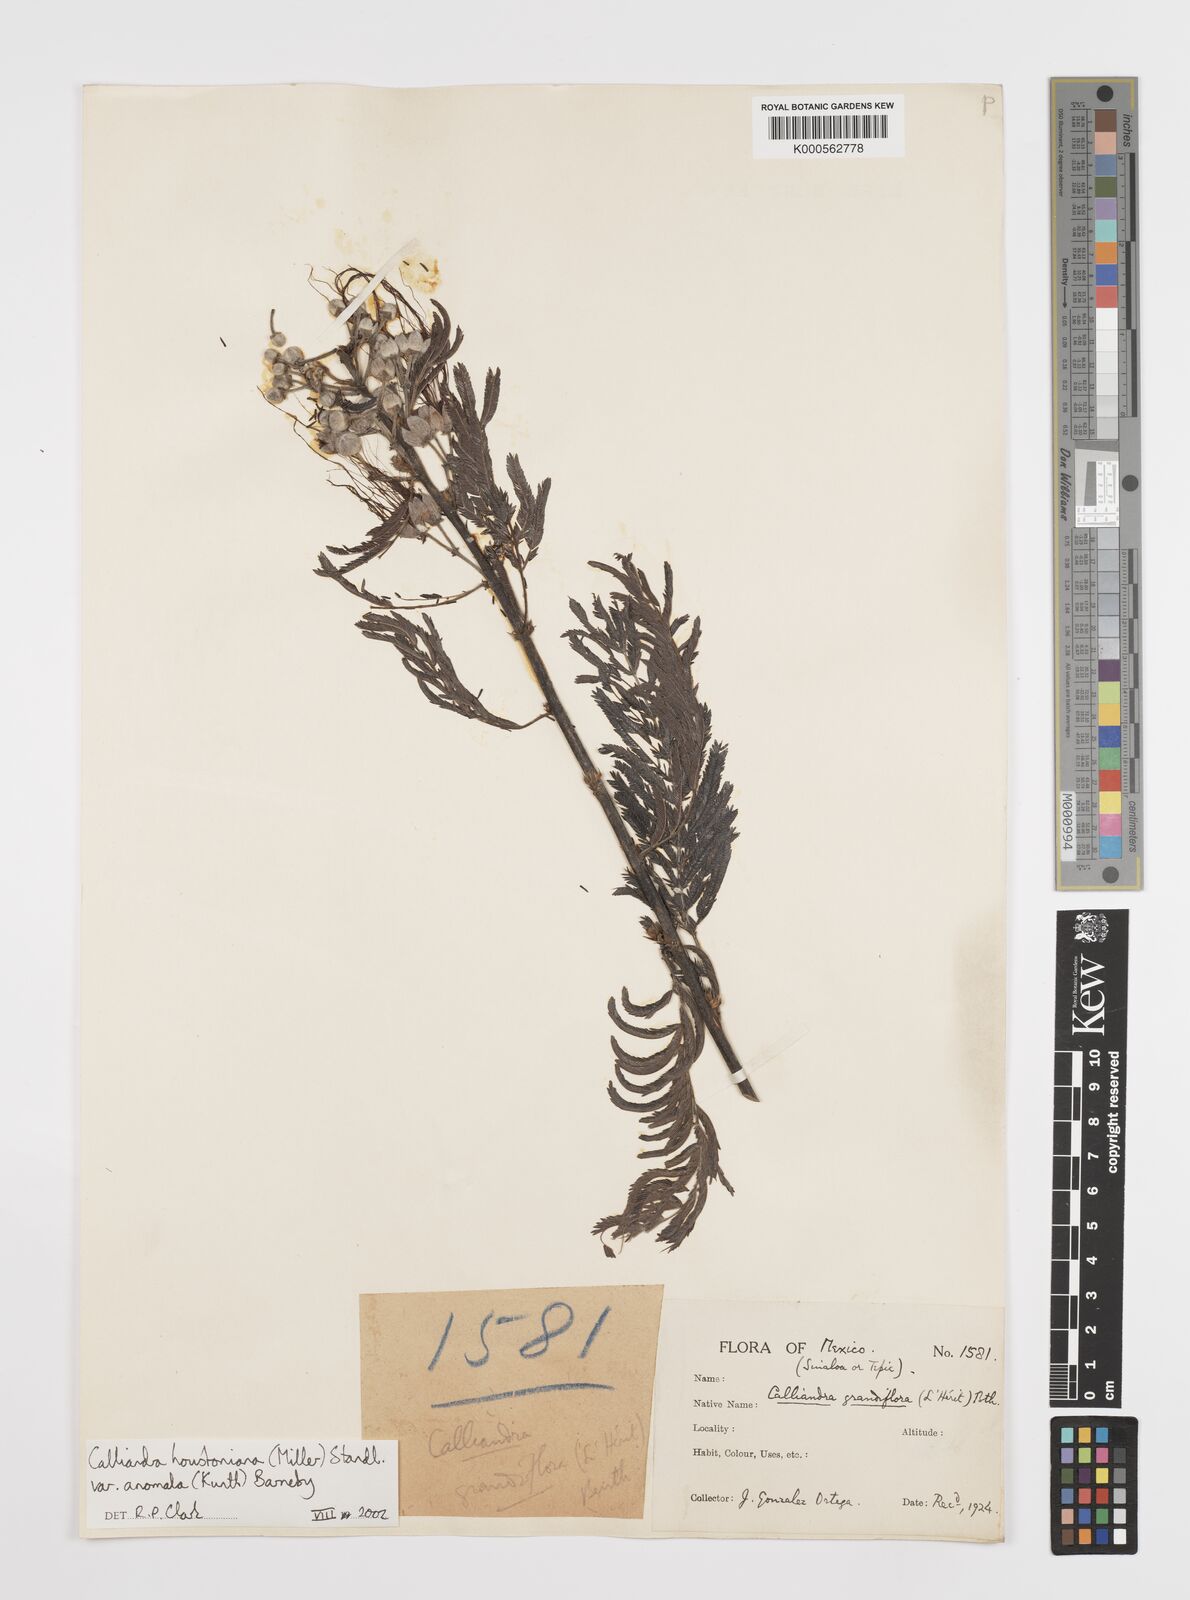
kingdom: Plantae
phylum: Tracheophyta
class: Magnoliopsida
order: Fabales
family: Fabaceae
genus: Calliandra
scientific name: Calliandra houstoniana
